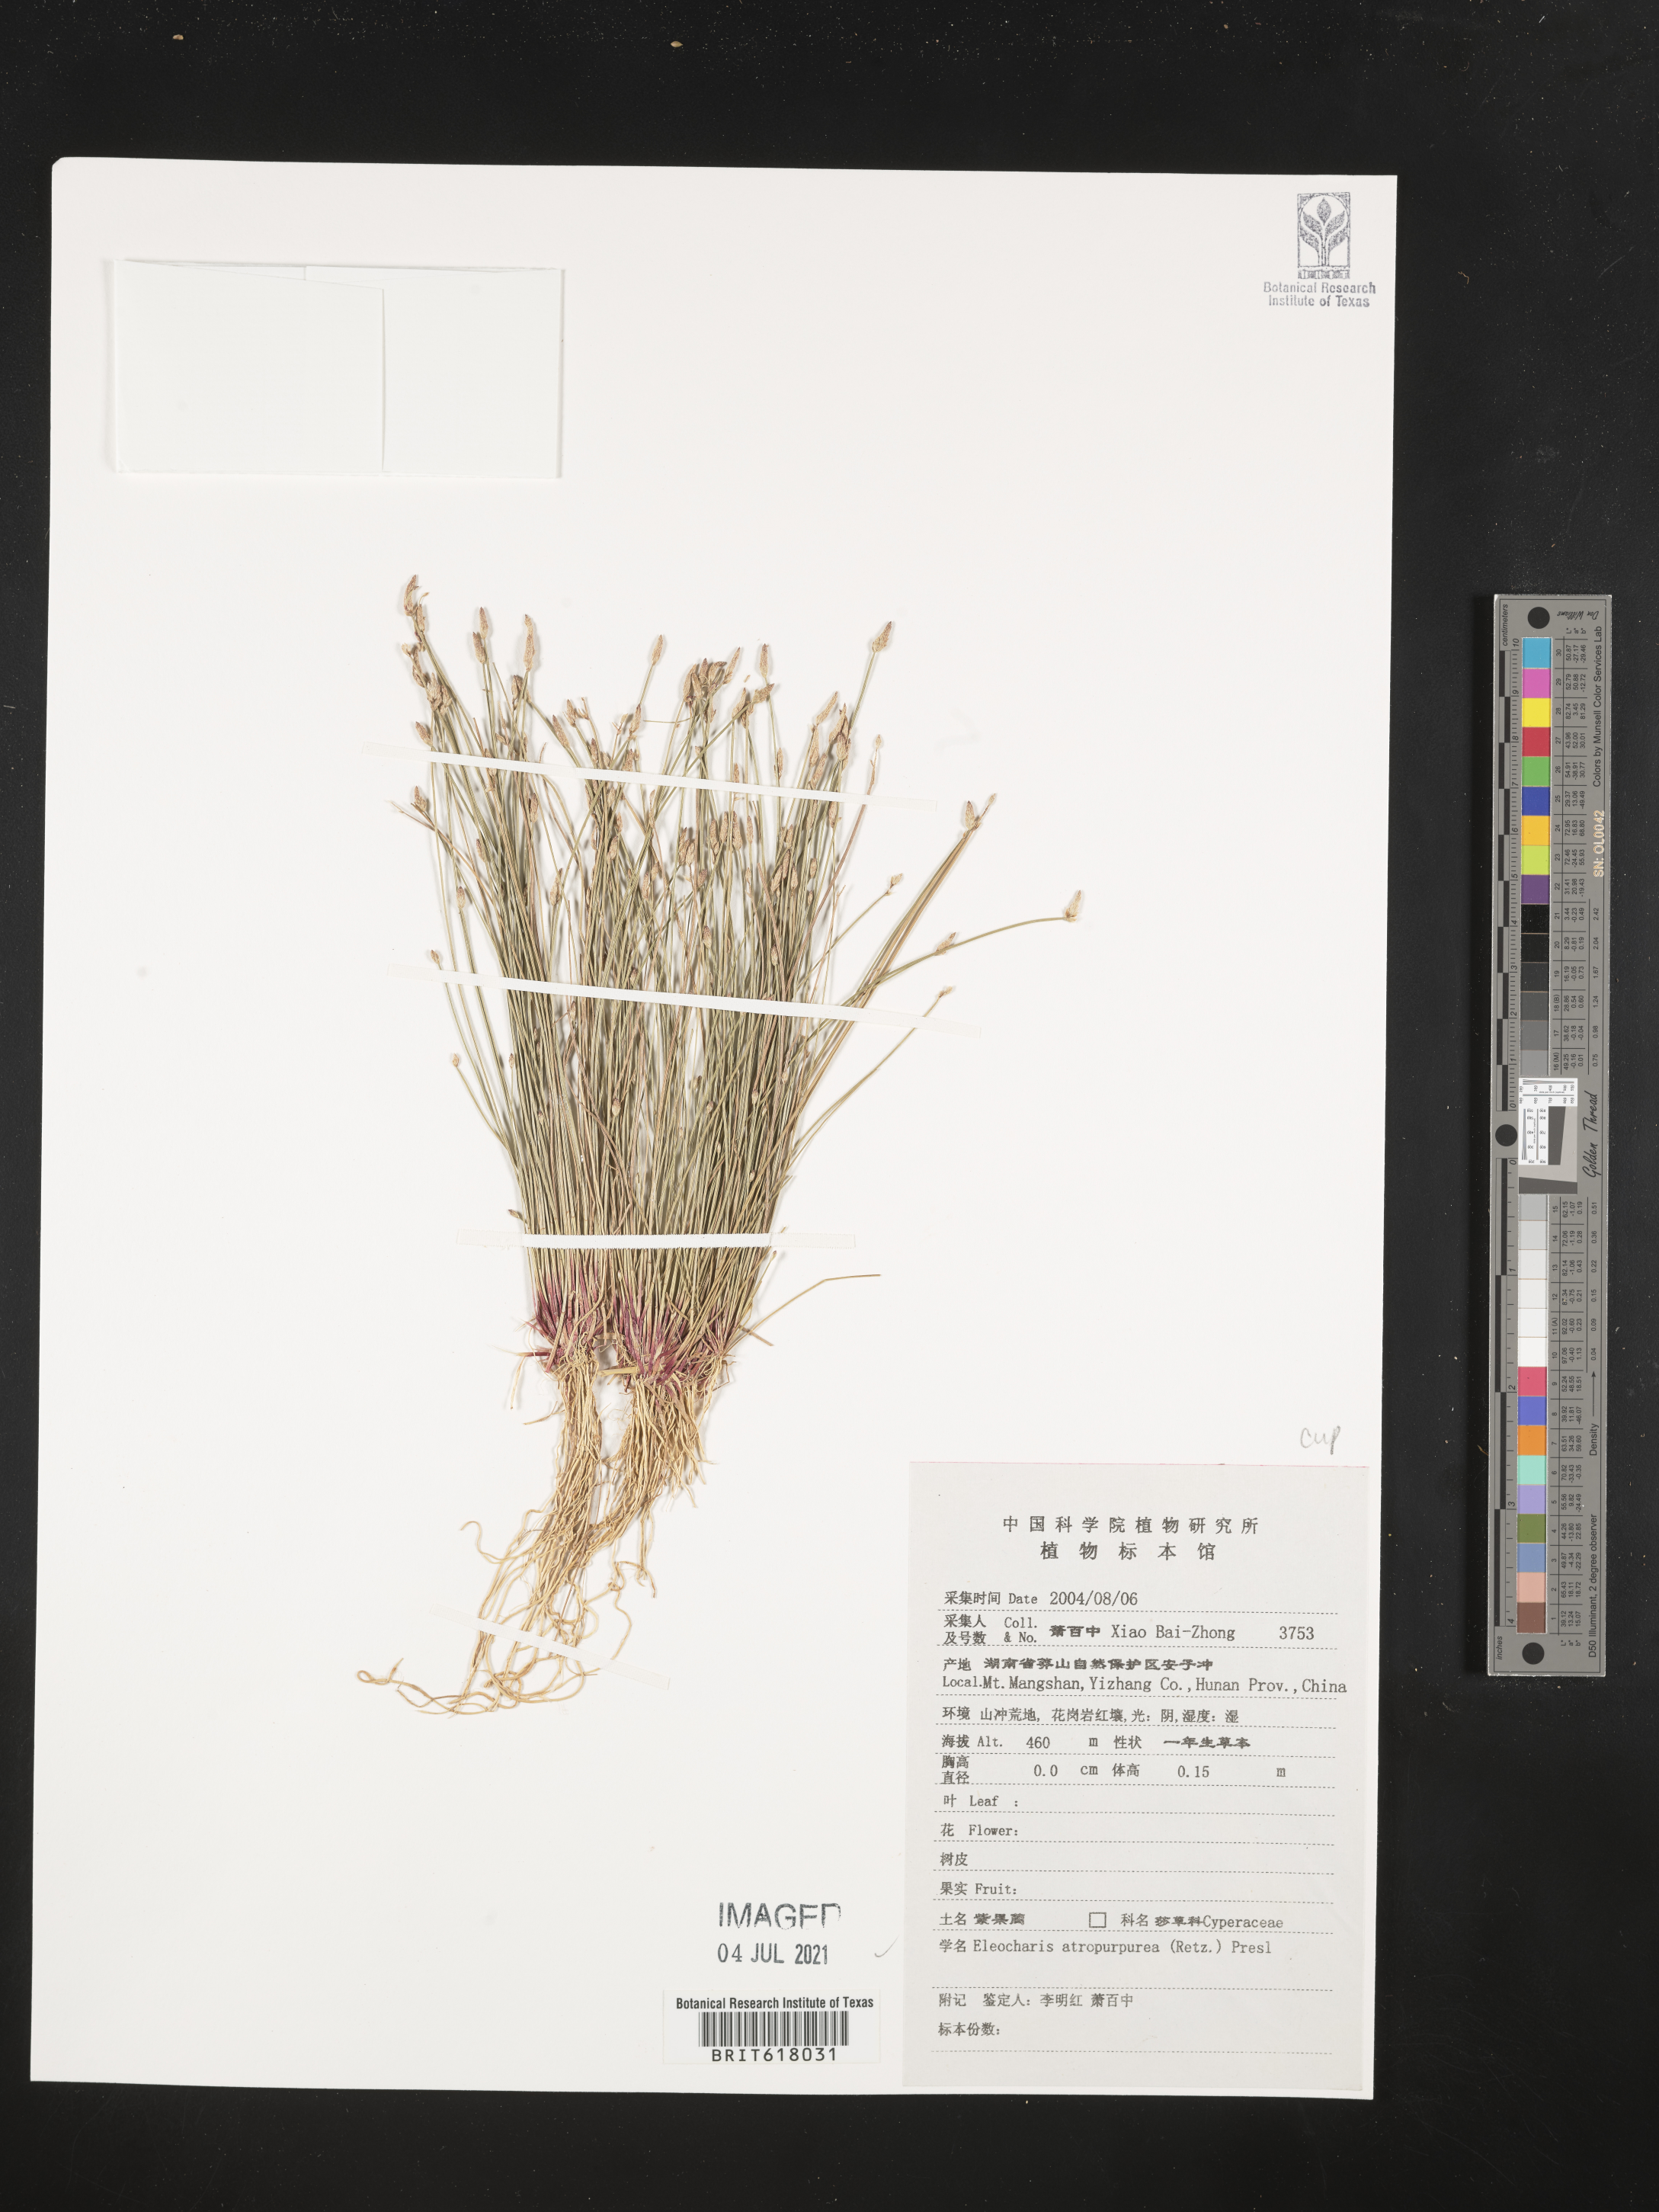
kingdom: Plantae
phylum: Tracheophyta
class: Liliopsida
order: Poales
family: Cyperaceae
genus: Eleocharis
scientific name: Eleocharis atropurpurea
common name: Purple spikerush
